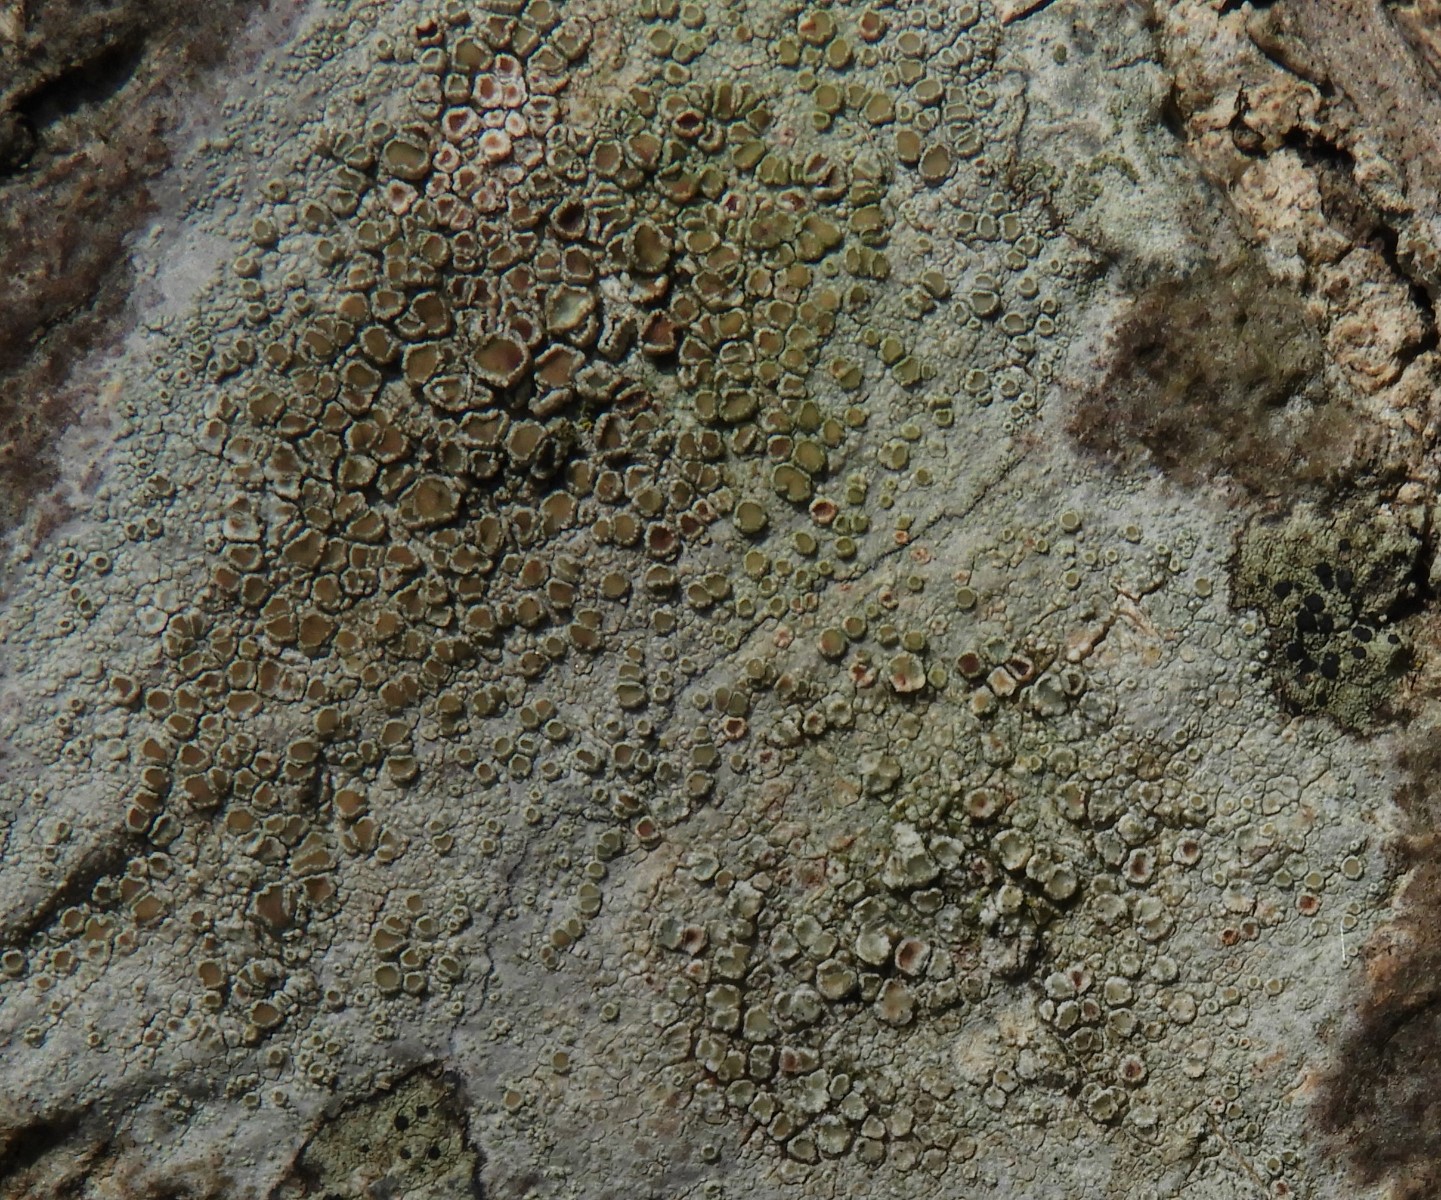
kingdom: Fungi
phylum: Ascomycota
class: Lecanoromycetes
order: Lecanorales
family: Lecanoraceae
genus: Lecanora
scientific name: Lecanora chlarotera
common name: brun kantskivelav
